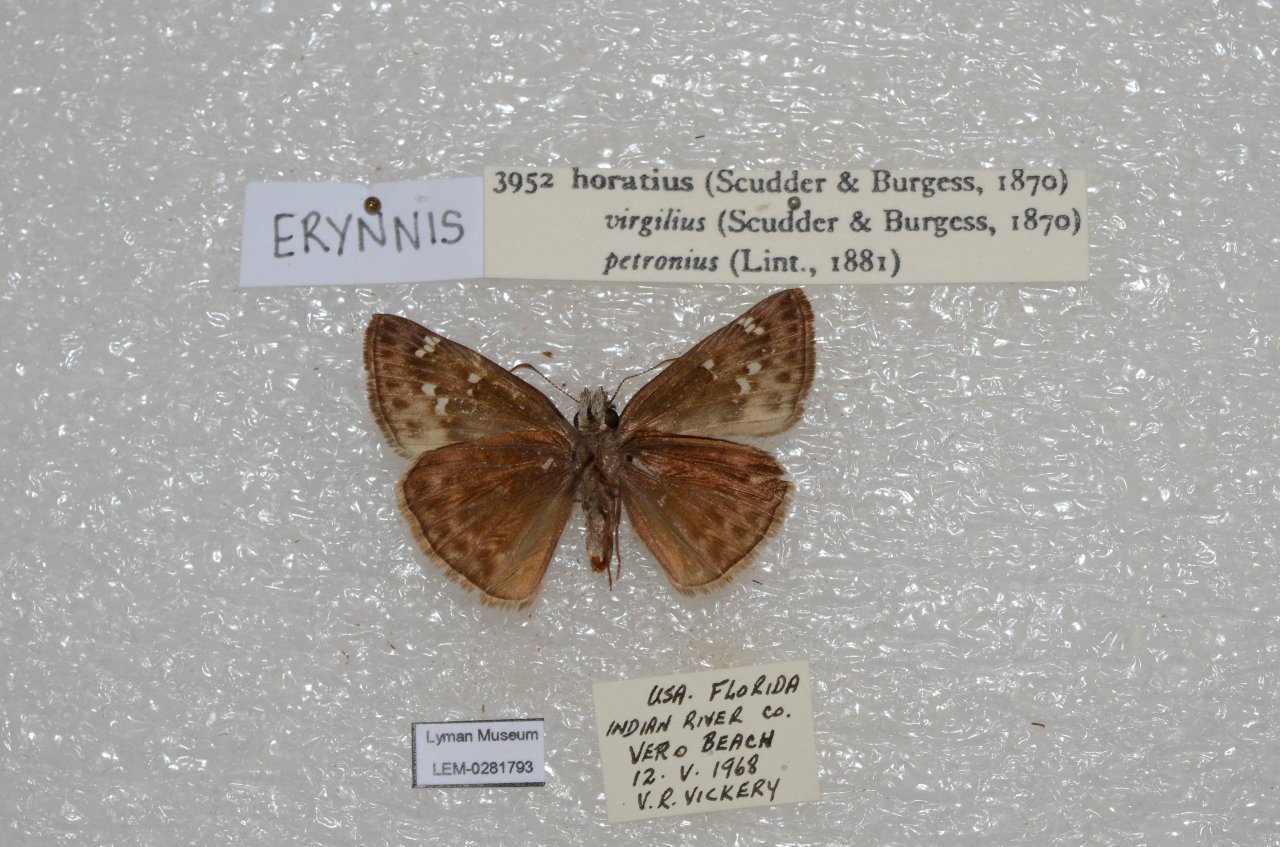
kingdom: Animalia
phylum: Arthropoda
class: Insecta
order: Lepidoptera
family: Hesperiidae
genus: Gesta
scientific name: Gesta
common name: Horace's Duskywing
